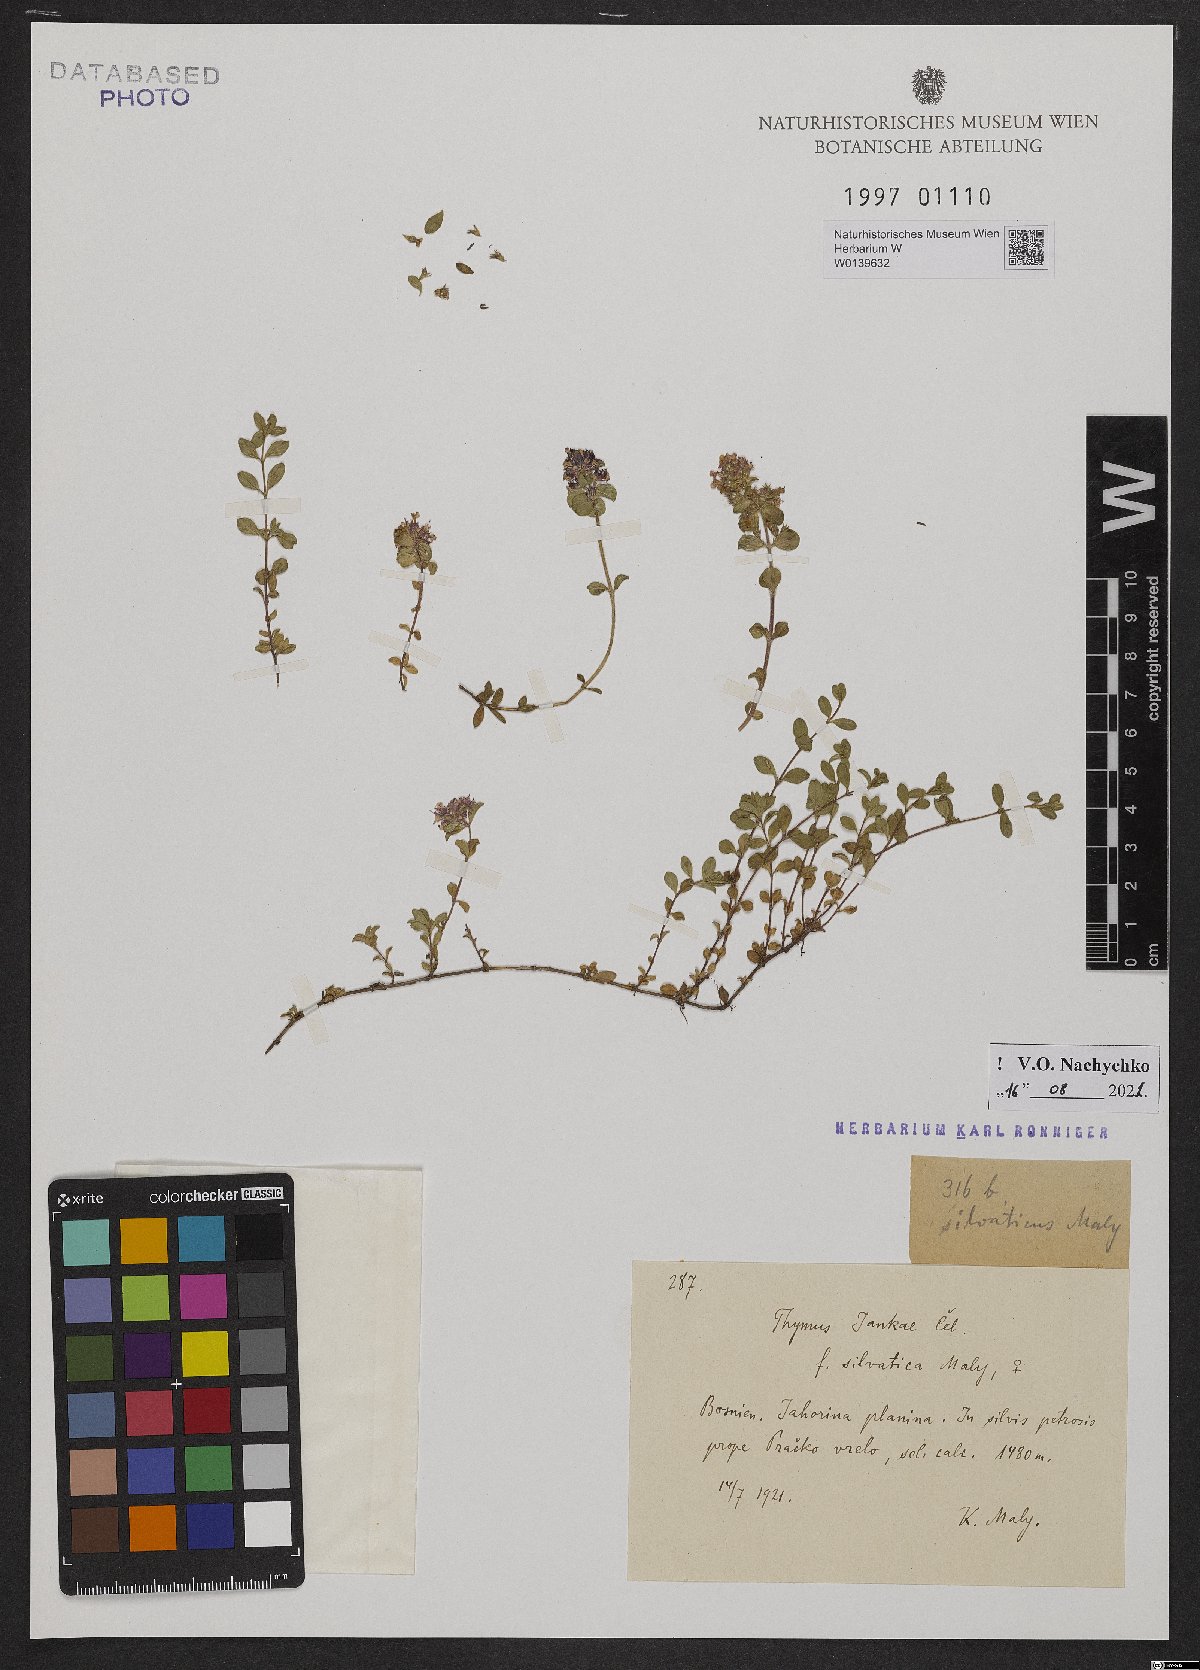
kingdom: Plantae
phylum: Tracheophyta
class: Magnoliopsida
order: Lamiales
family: Lamiaceae
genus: Thymus
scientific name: Thymus jankae
